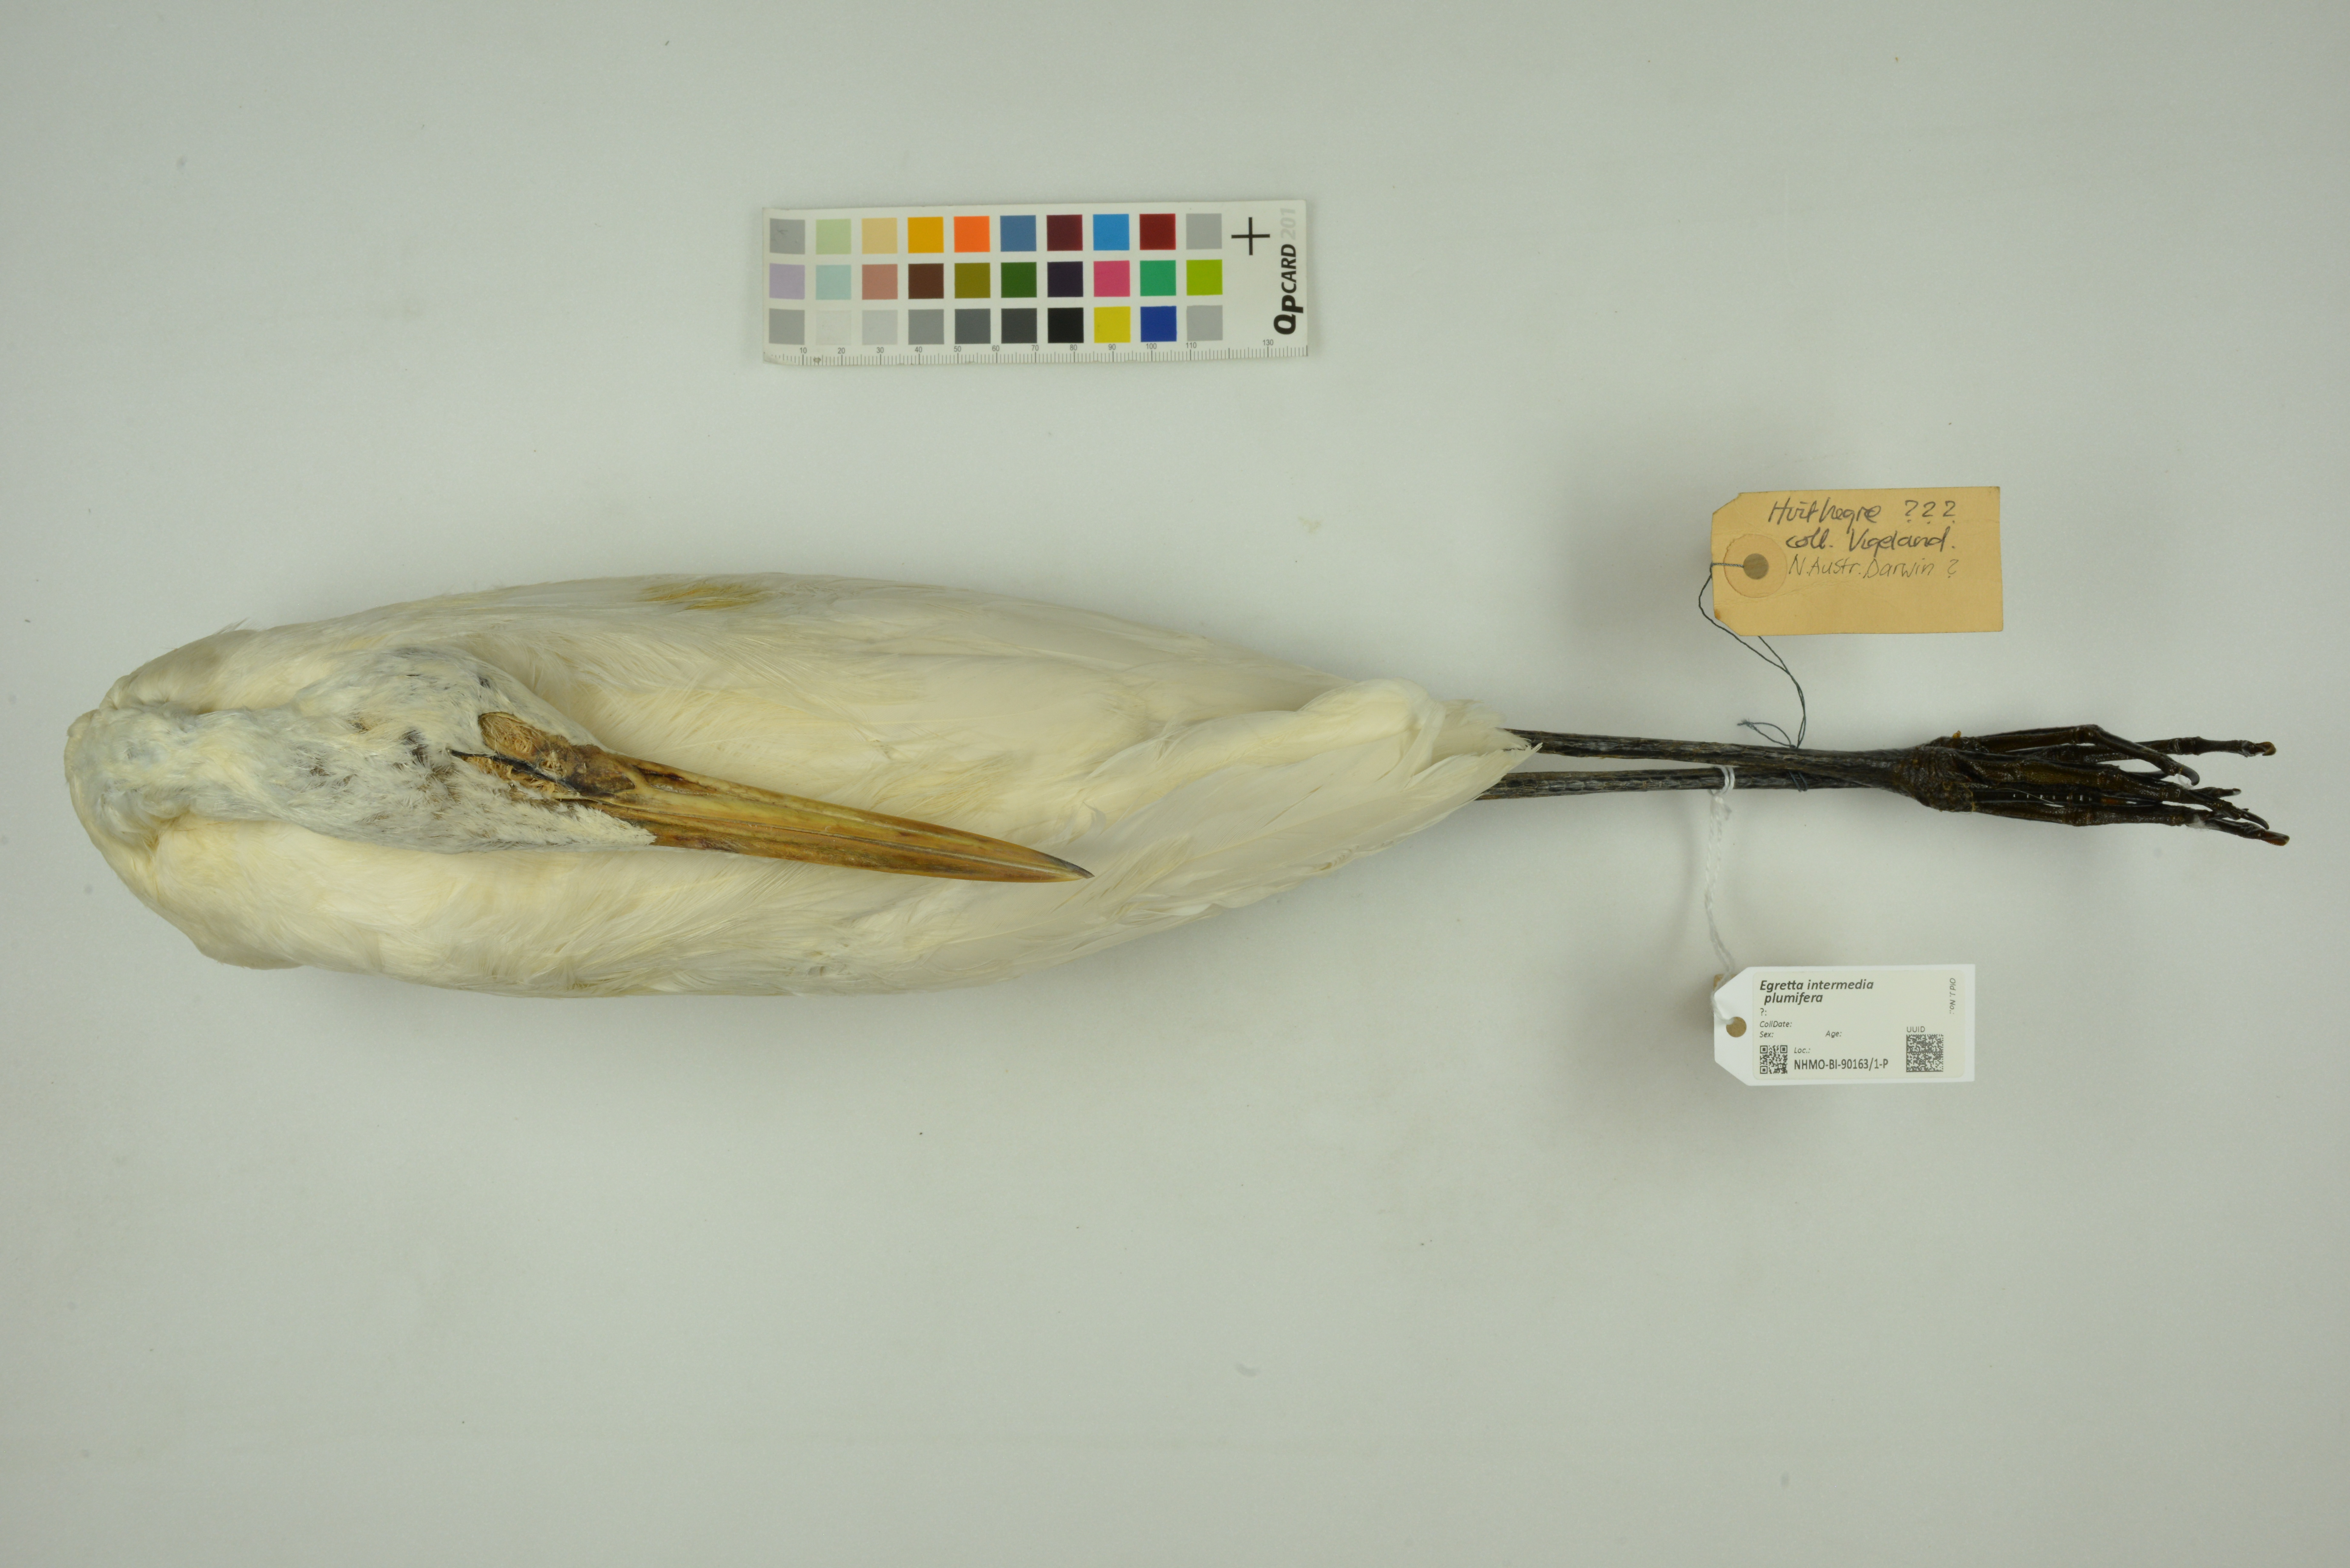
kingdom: Animalia
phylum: Chordata
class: Aves
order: Pelecaniformes
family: Ardeidae
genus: Egretta
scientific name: Egretta intermedia
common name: Intermediate egret
